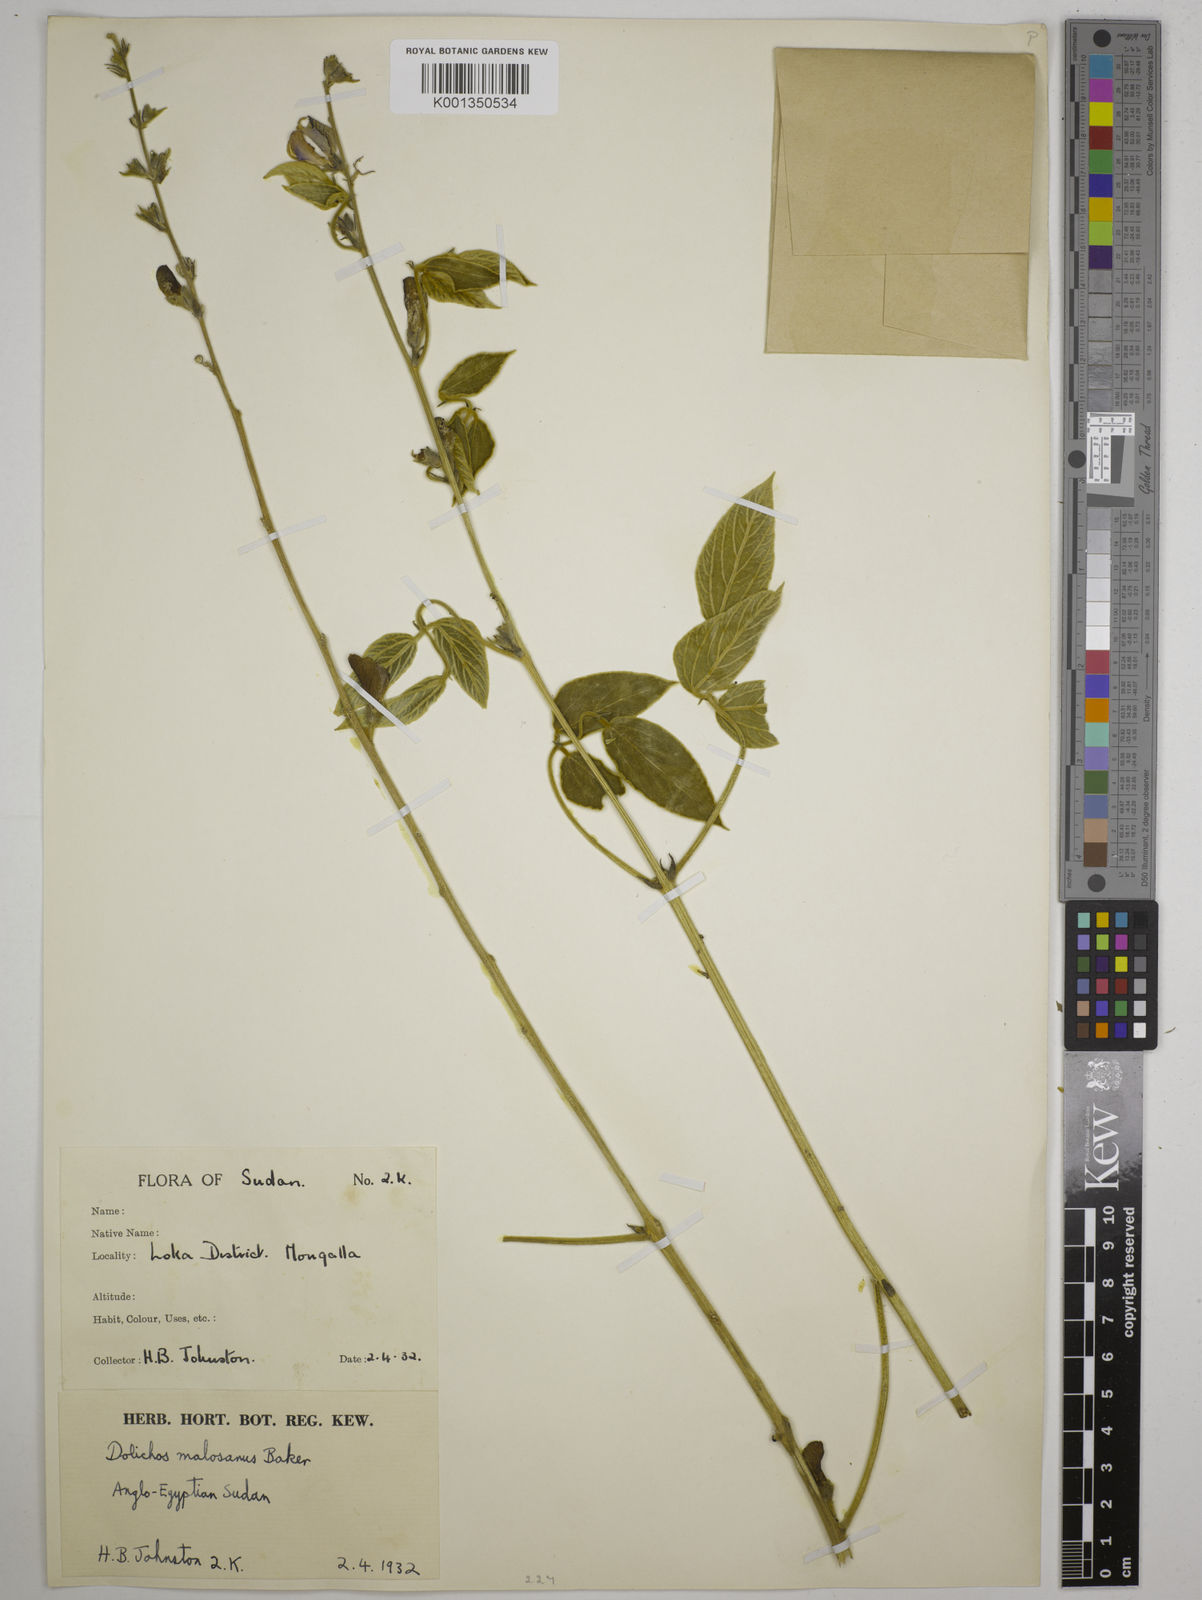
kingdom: Plantae
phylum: Tracheophyta
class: Magnoliopsida
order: Fabales
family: Fabaceae
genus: Dolichos
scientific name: Dolichos kilimandscharicus
